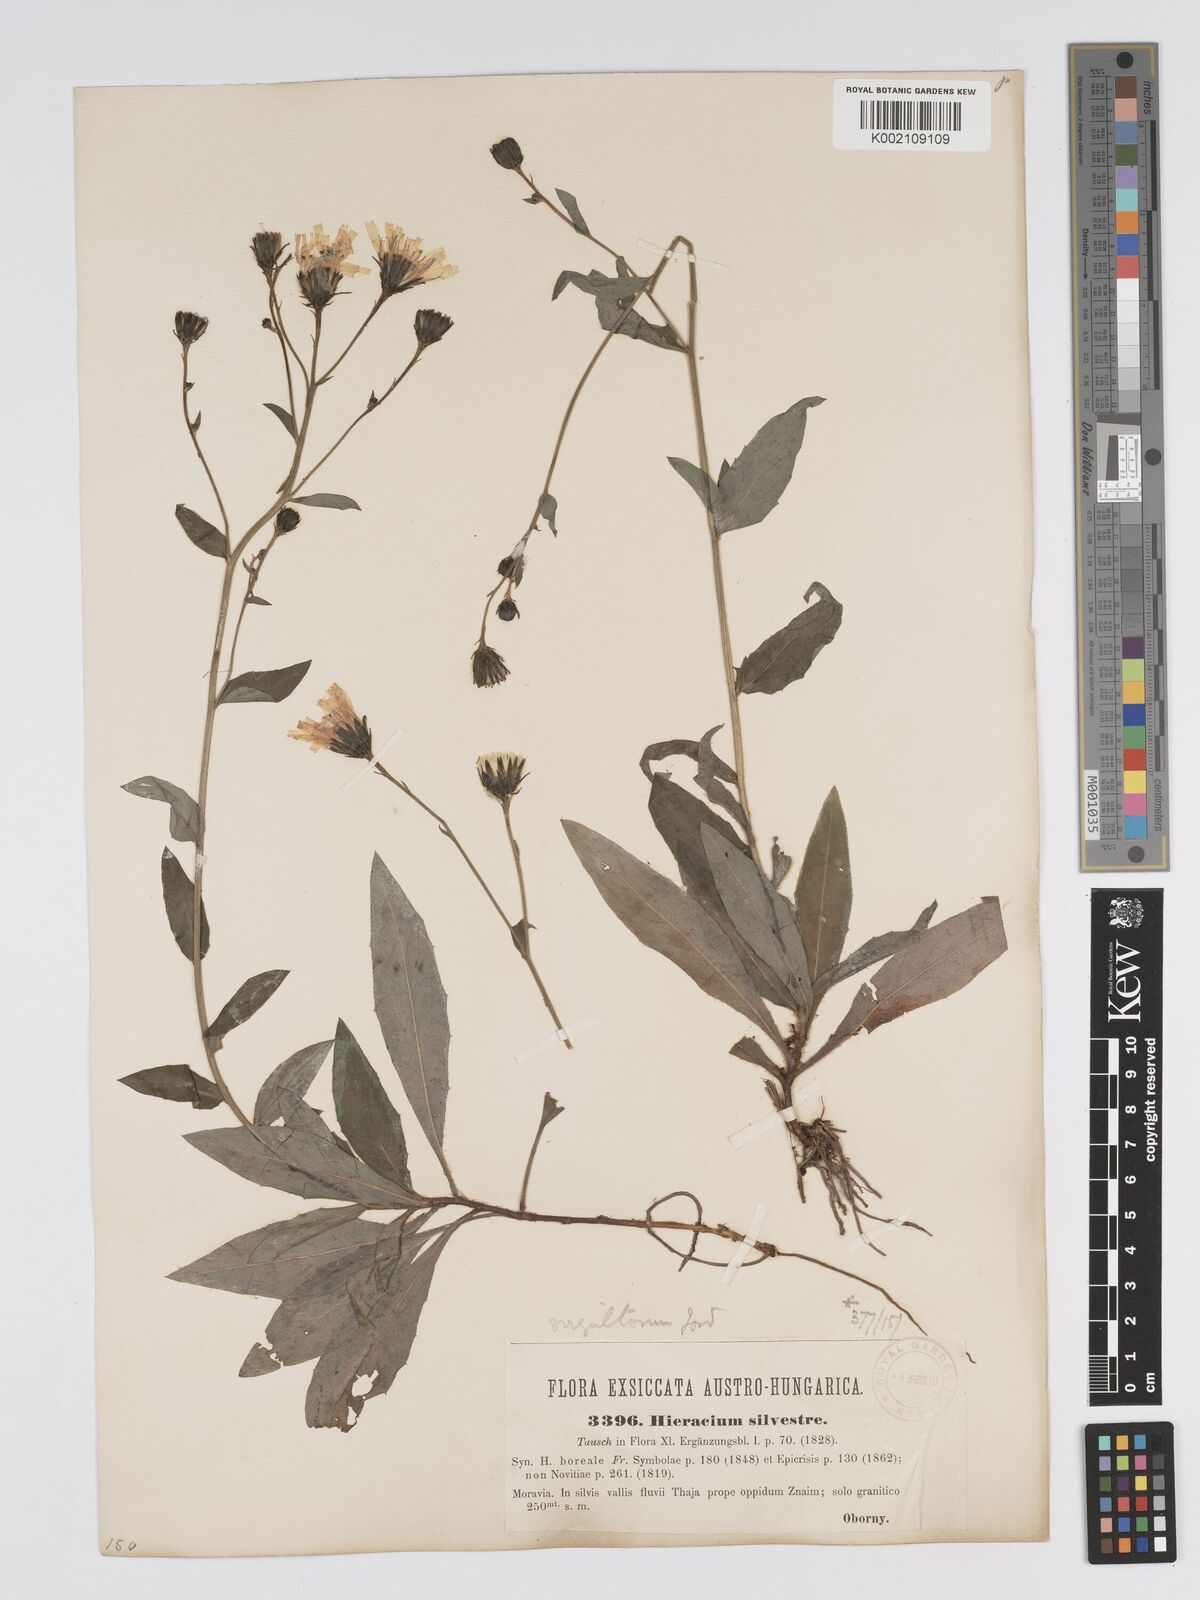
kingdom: Plantae
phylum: Tracheophyta
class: Magnoliopsida
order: Asterales
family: Asteraceae
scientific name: Asteraceae
